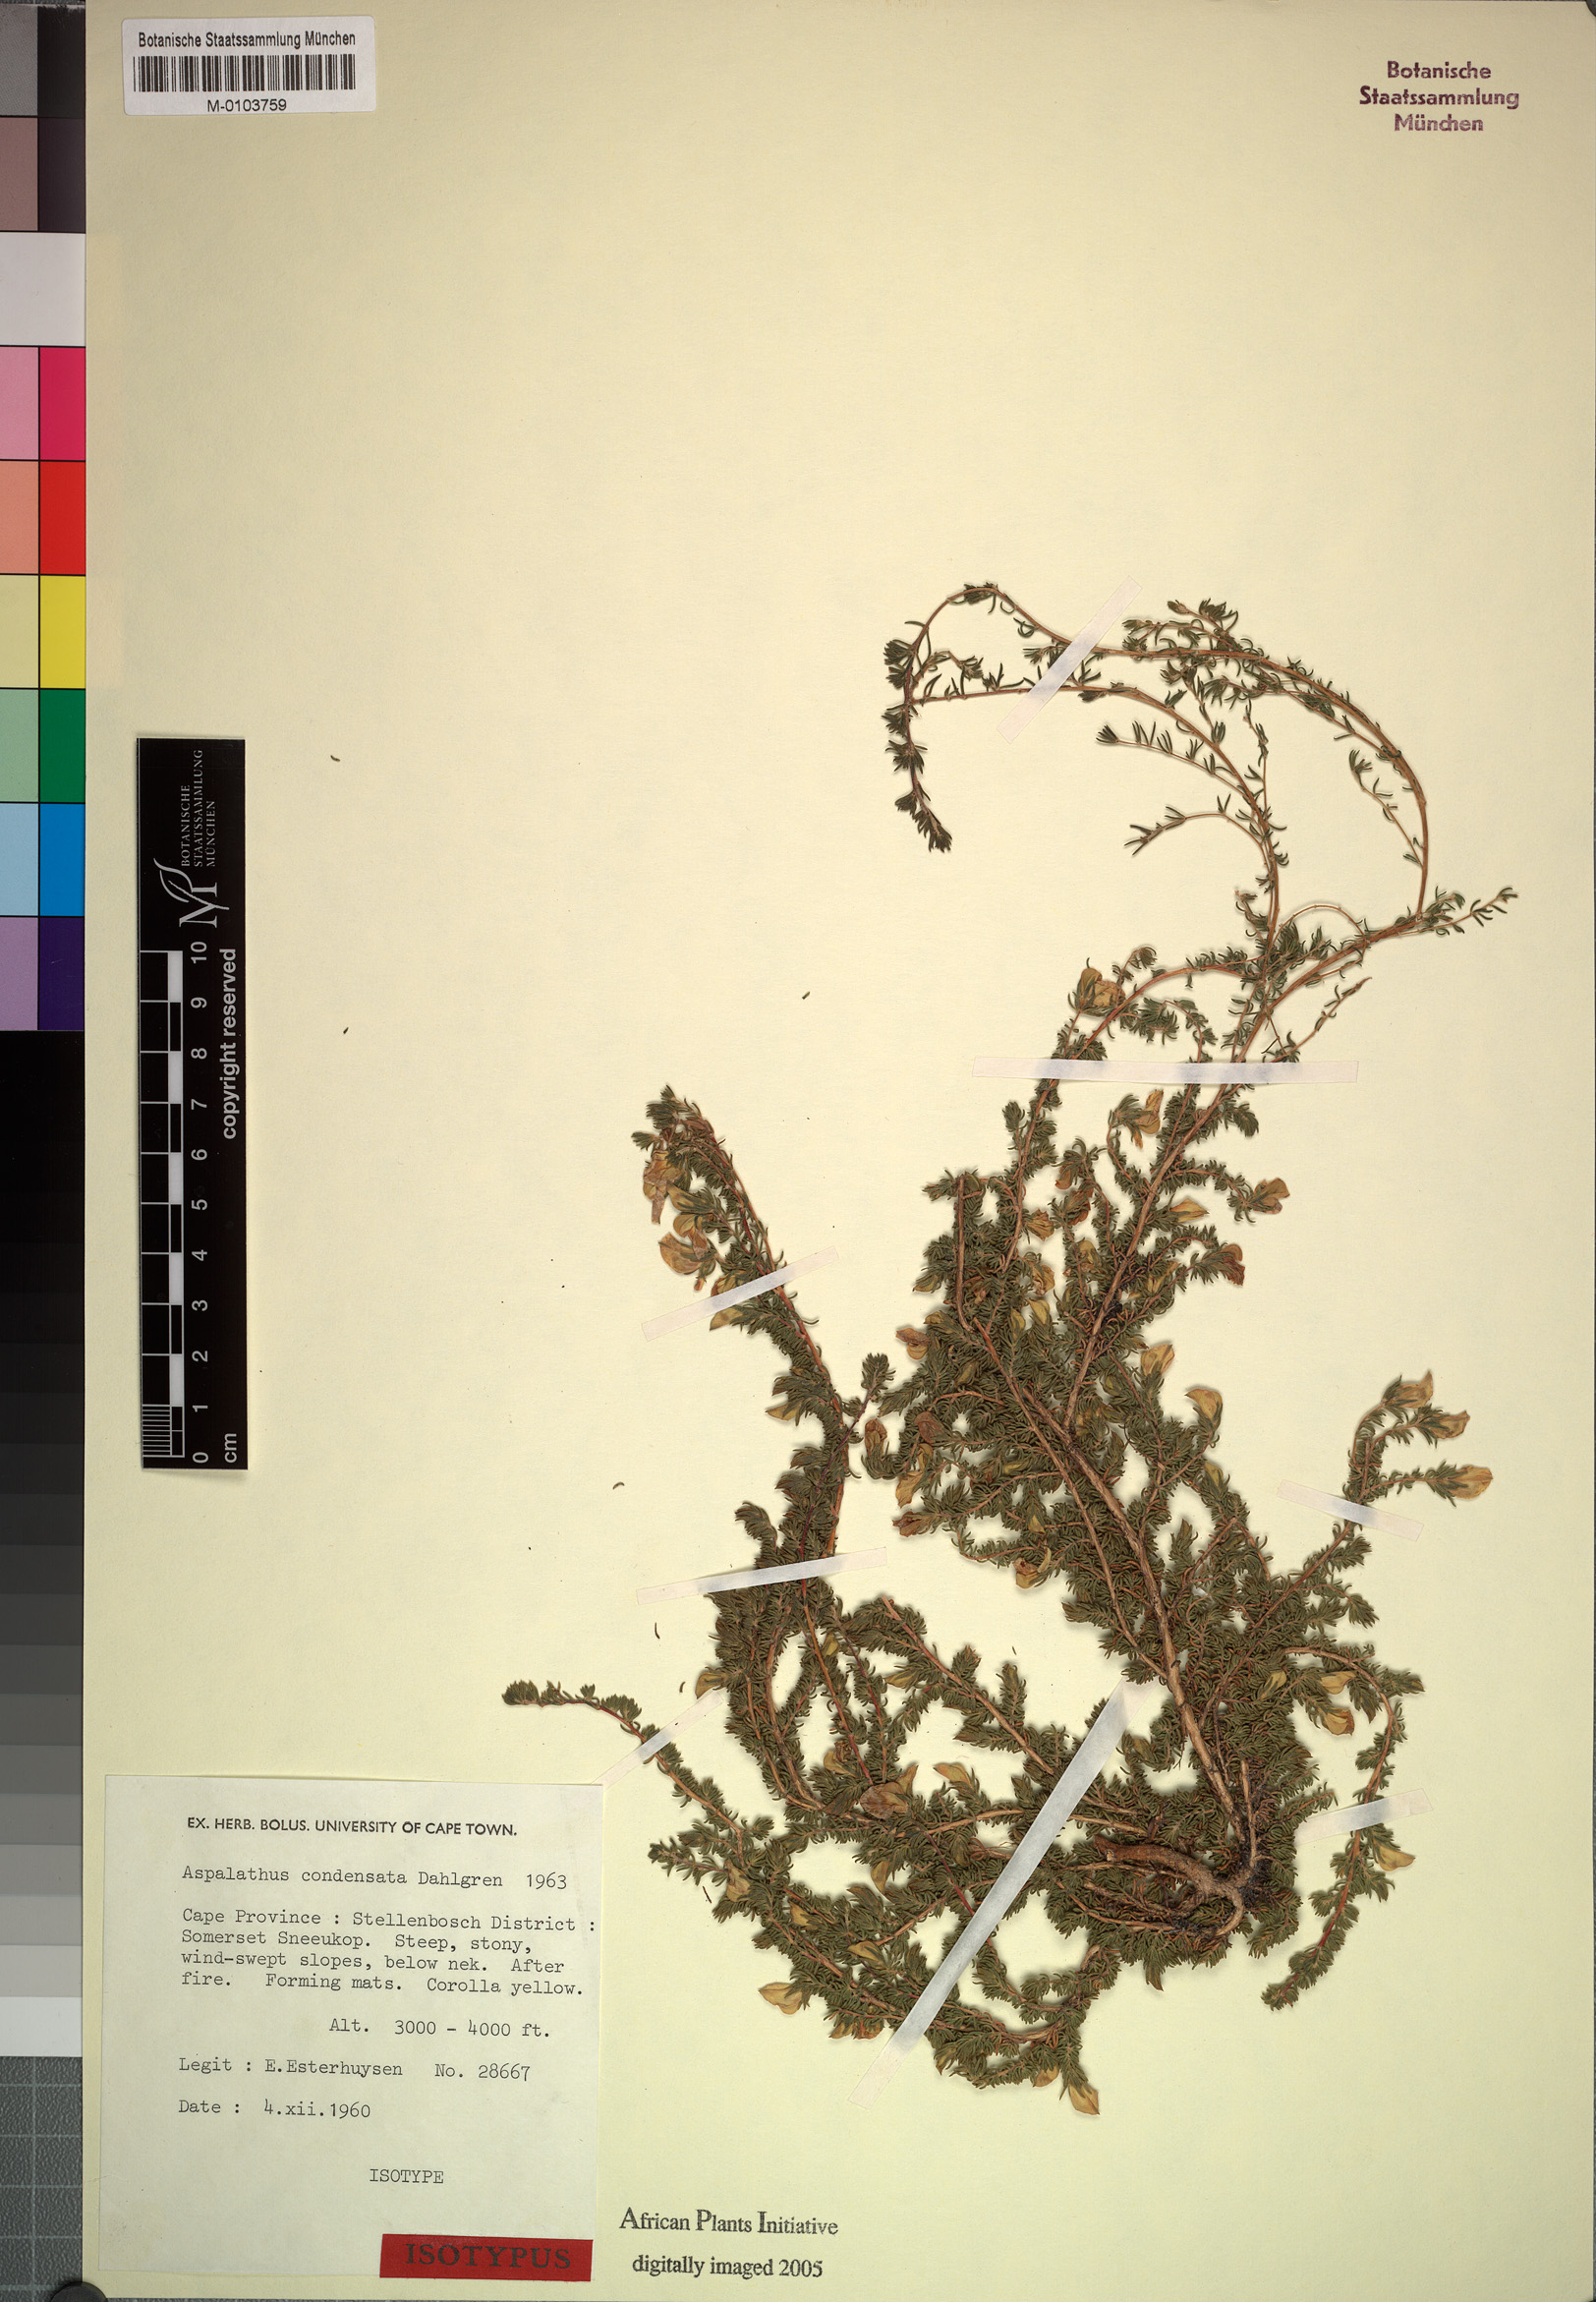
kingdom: Plantae
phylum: Tracheophyta
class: Magnoliopsida
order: Fabales
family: Fabaceae
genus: Aspalathus
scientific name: Aspalathus condensata
